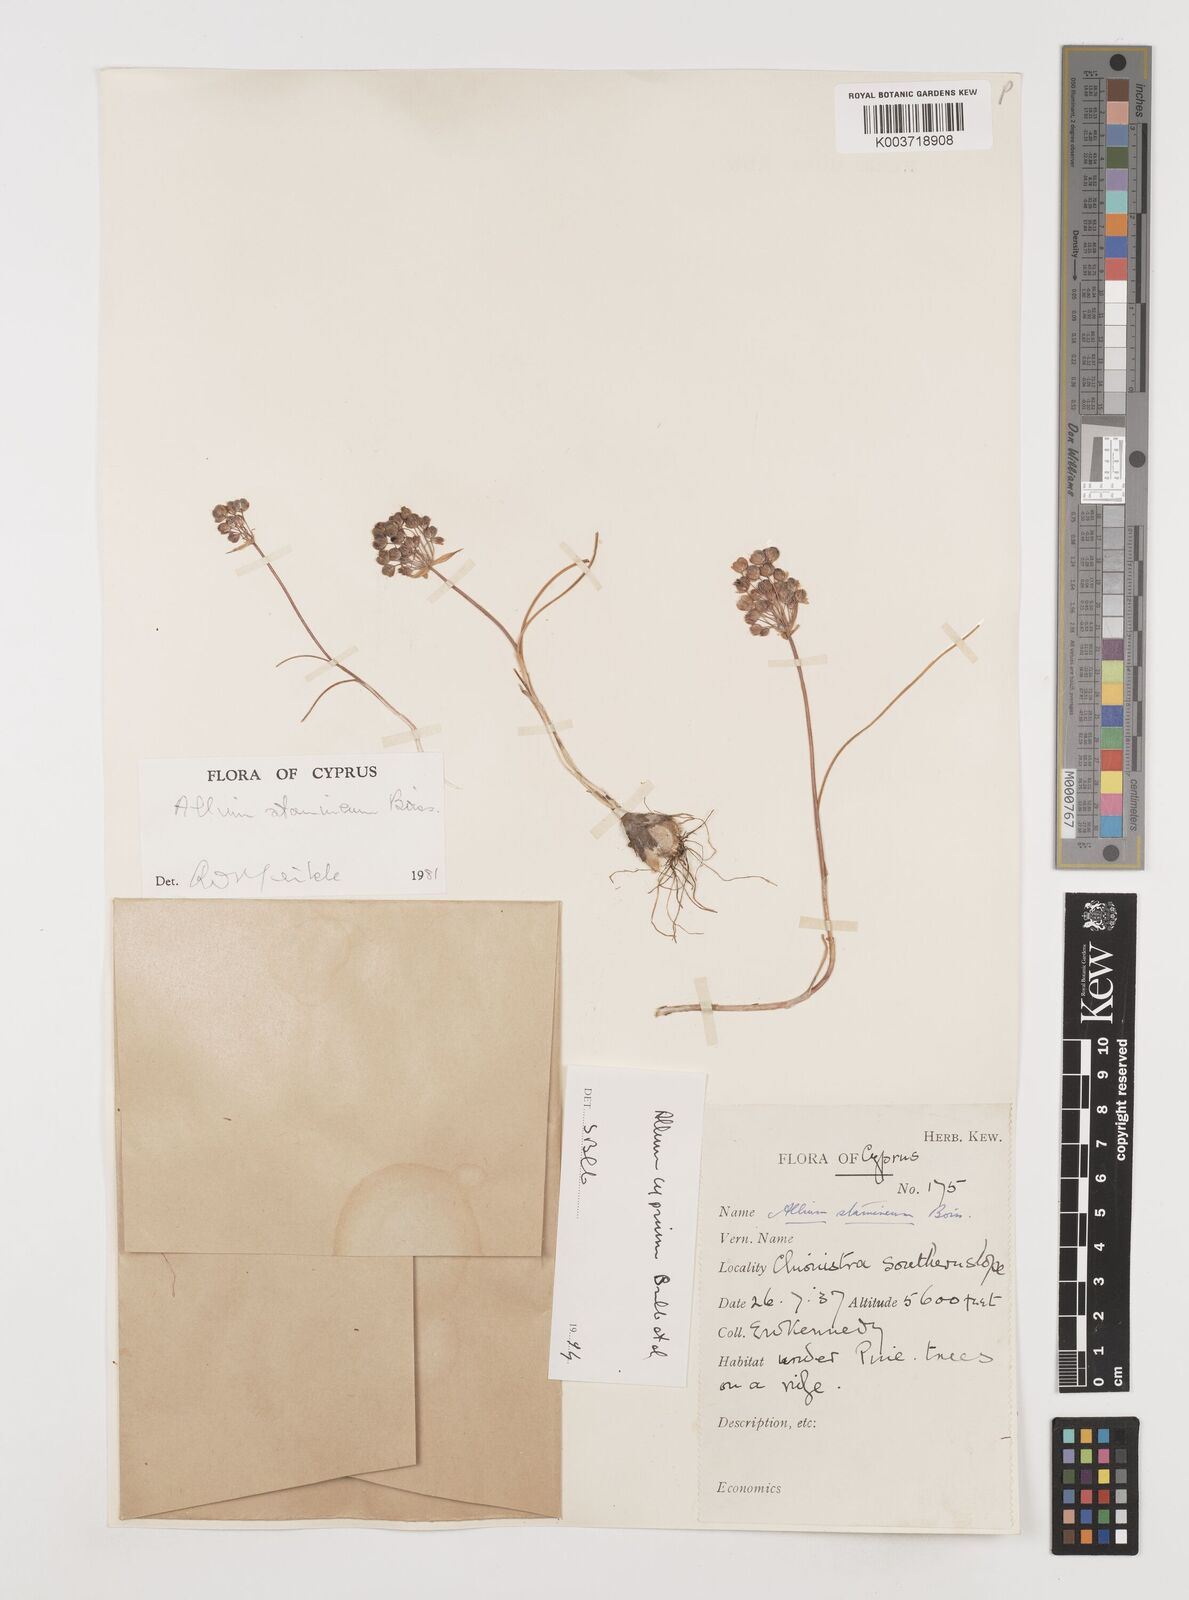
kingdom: Plantae
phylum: Tracheophyta
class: Liliopsida
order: Asparagales
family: Amaryllidaceae
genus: Allium
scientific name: Allium stamineum
